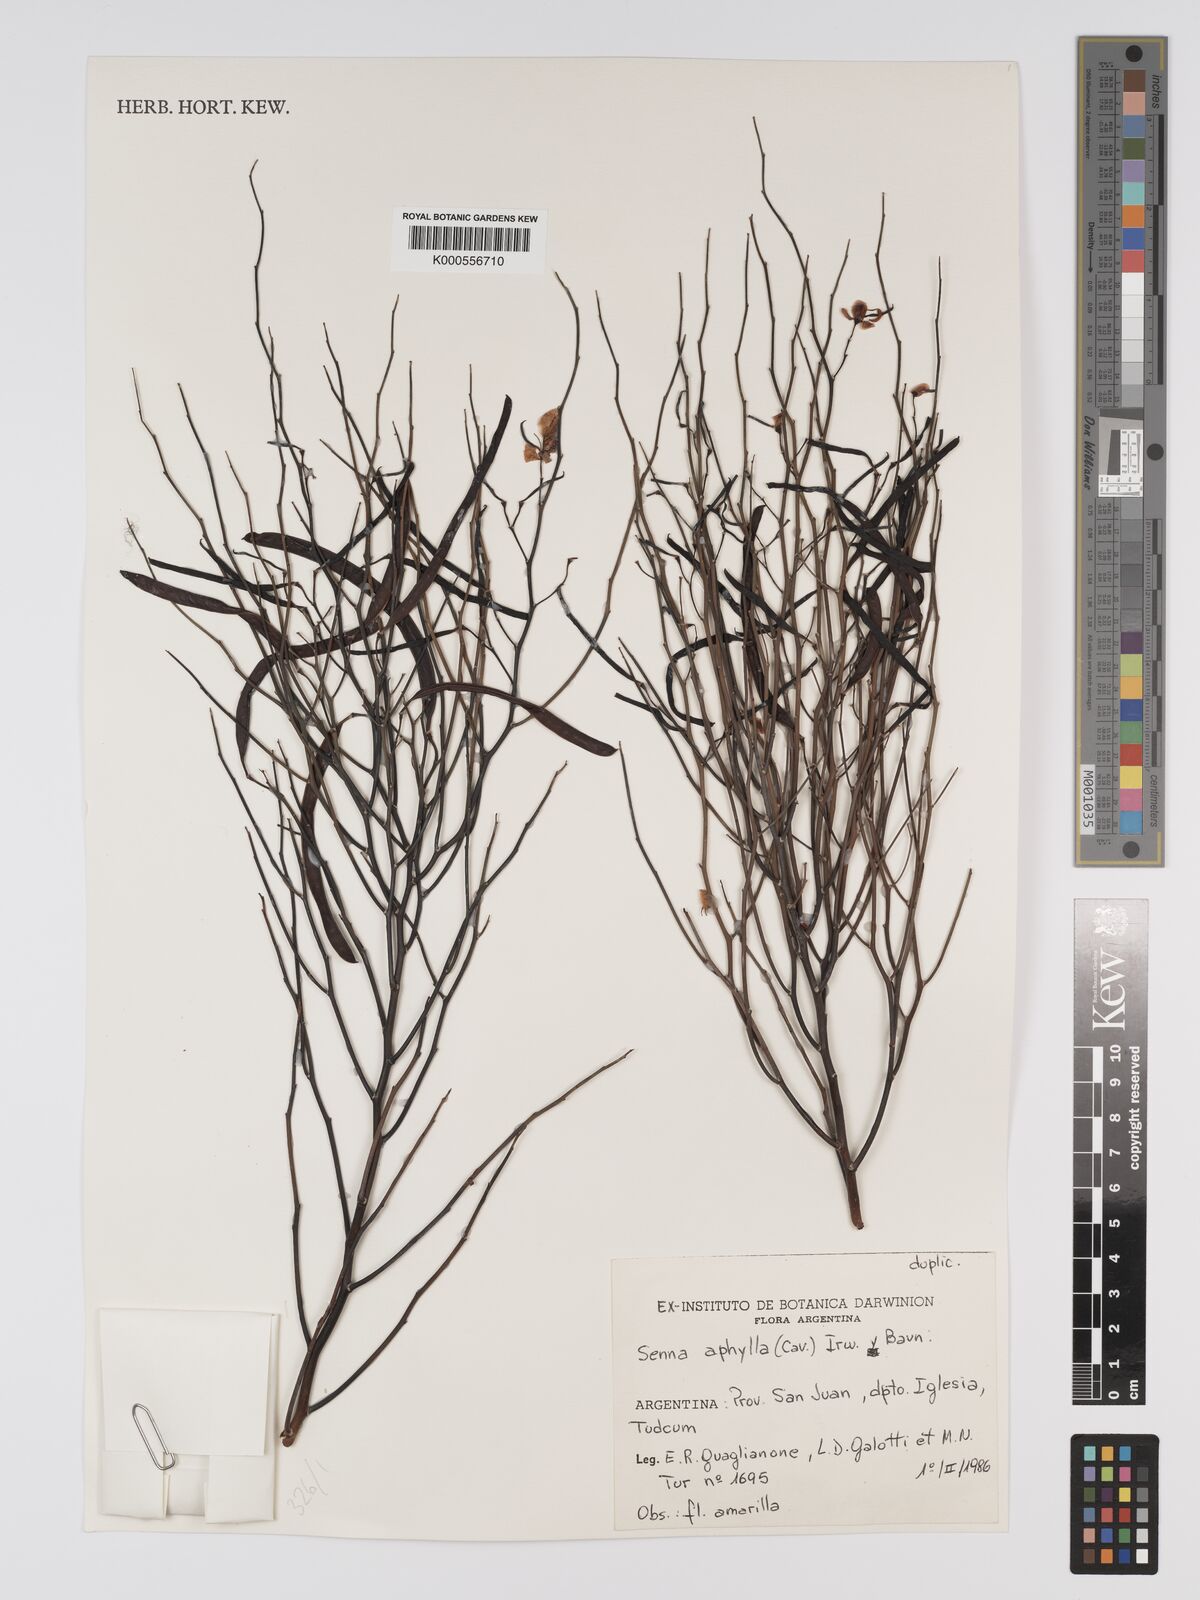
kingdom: Plantae
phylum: Tracheophyta
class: Magnoliopsida
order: Fabales
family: Fabaceae
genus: Senna
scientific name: Senna aphylla
